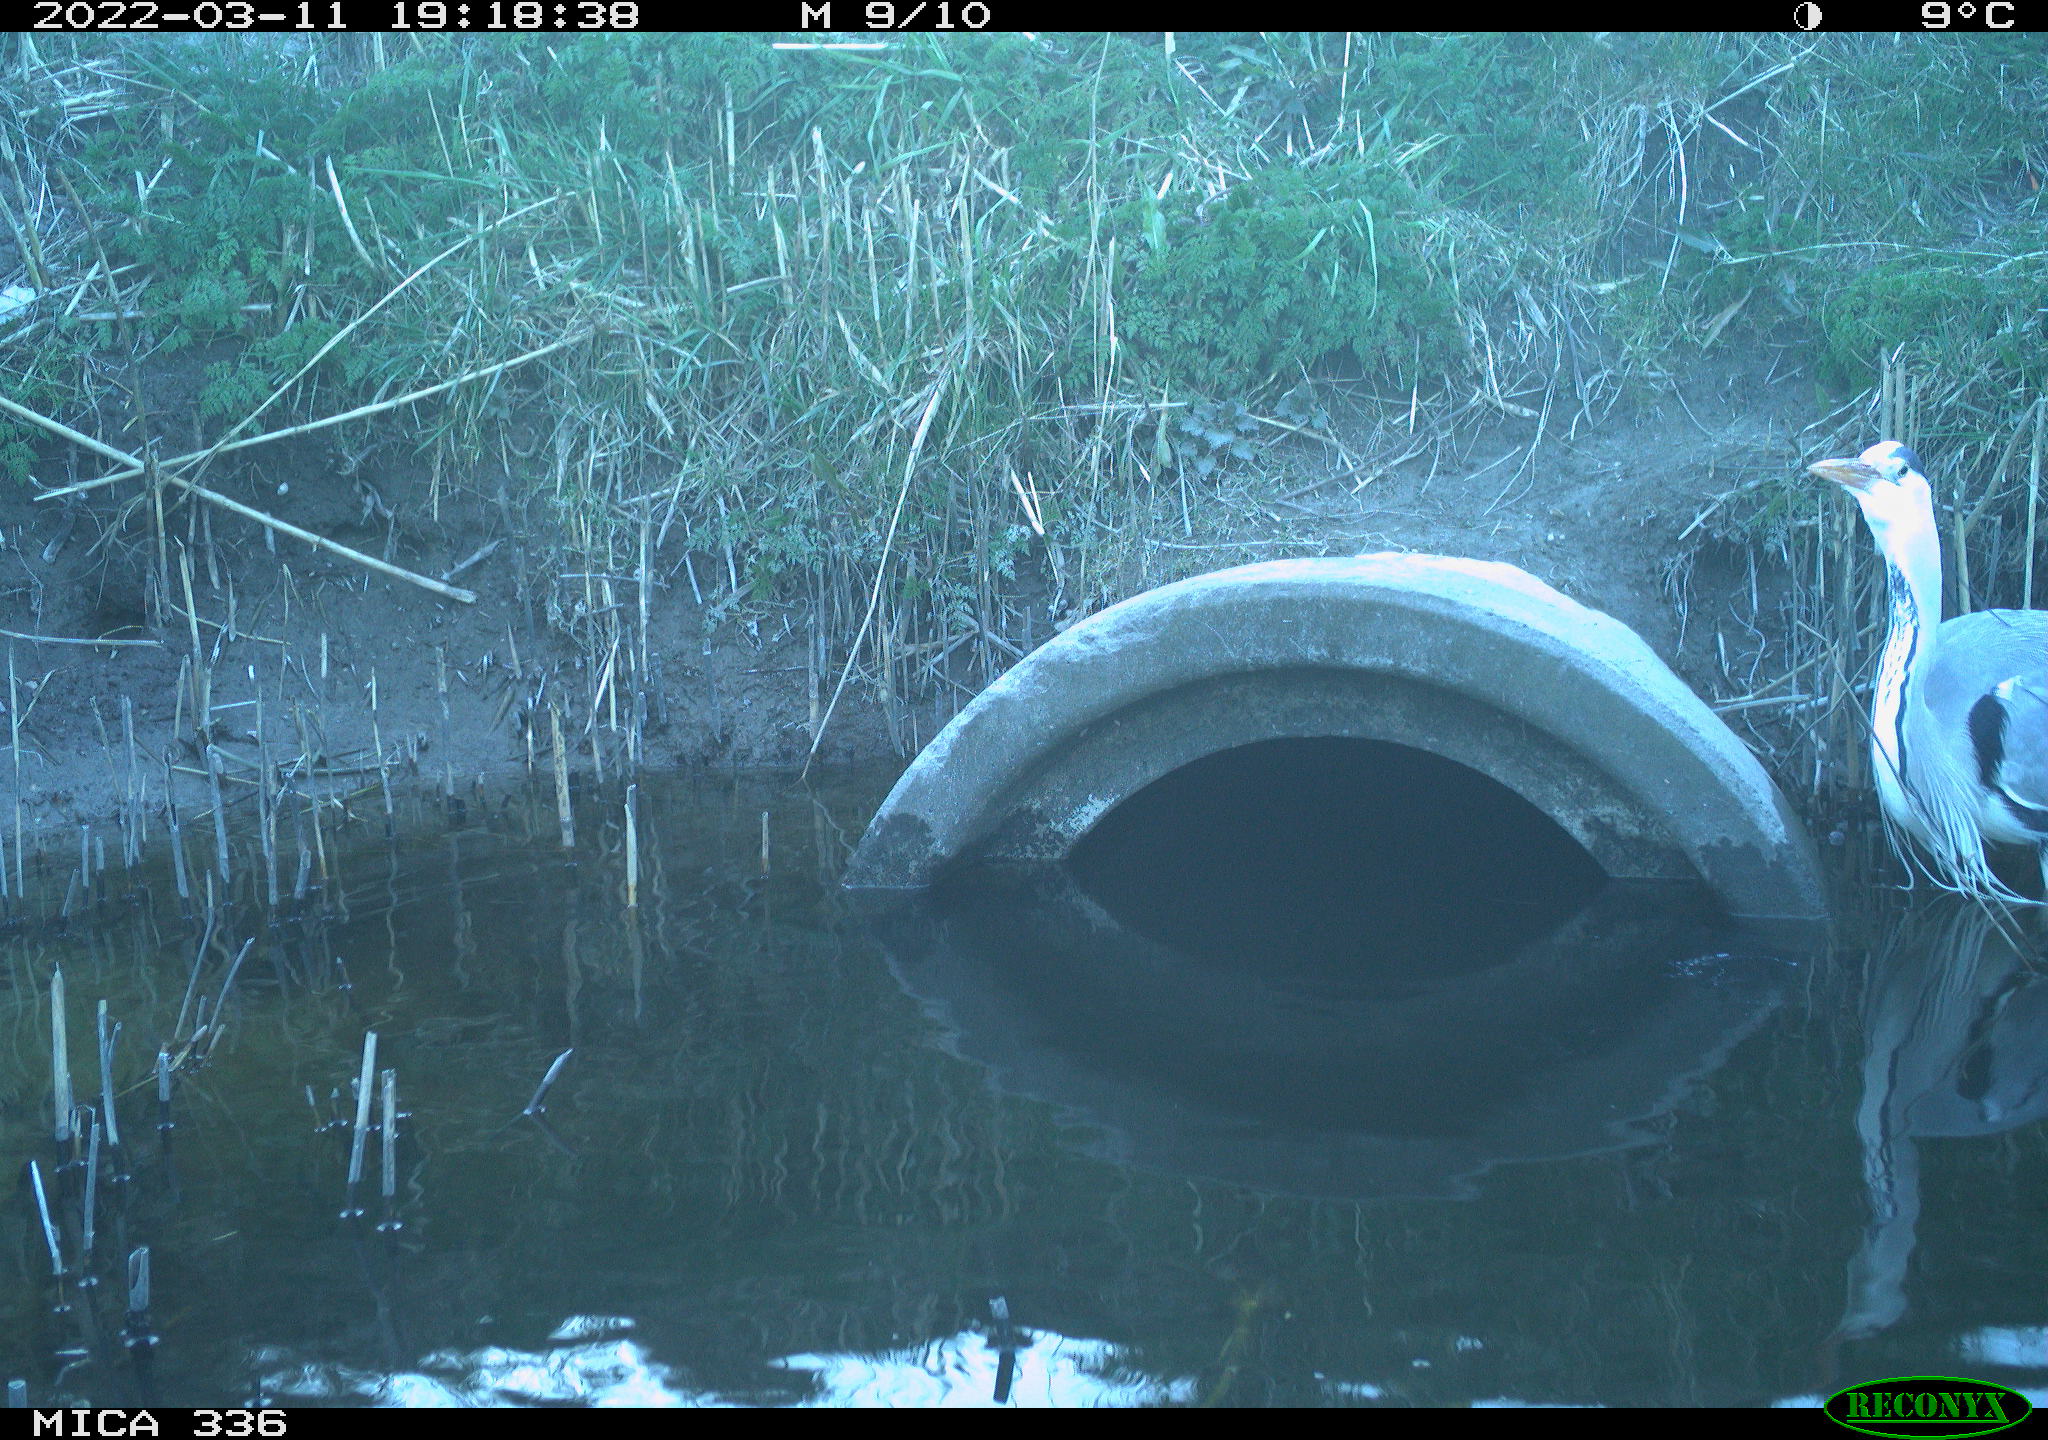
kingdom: Animalia
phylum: Chordata
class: Mammalia
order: Rodentia
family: Muridae
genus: Rattus
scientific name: Rattus norvegicus
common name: Brown rat
